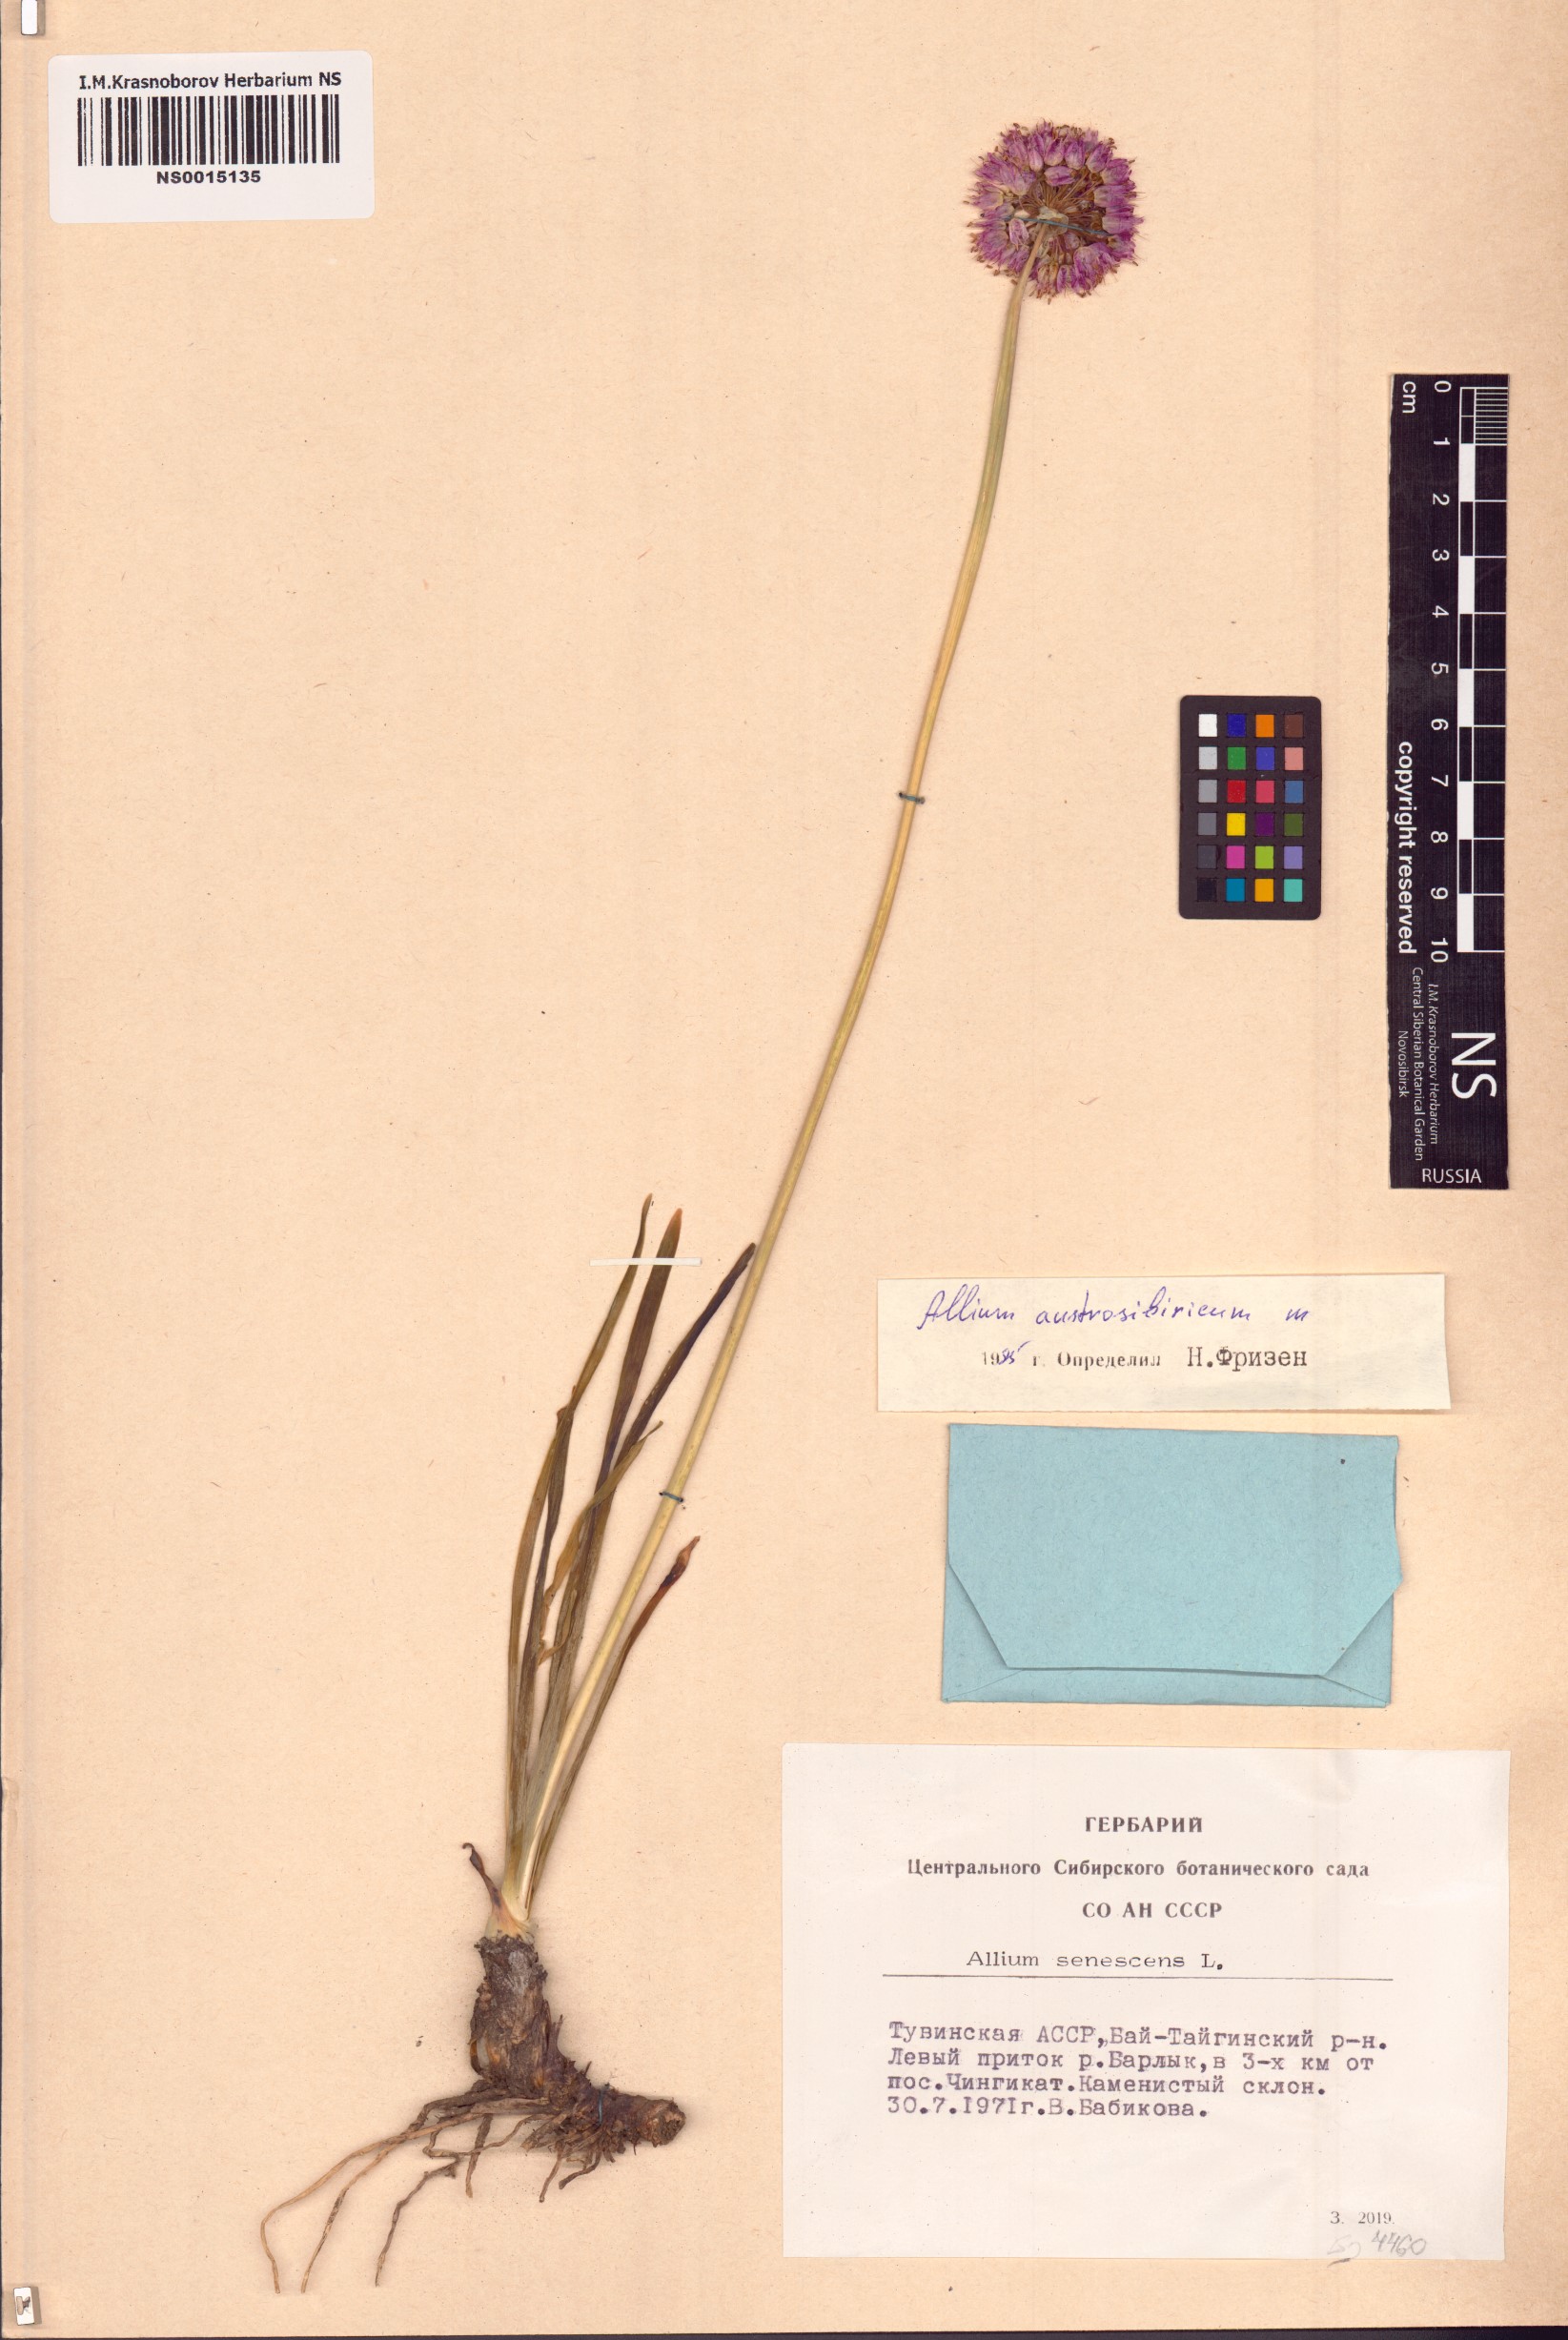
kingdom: Plantae
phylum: Tracheophyta
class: Liliopsida
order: Asparagales
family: Amaryllidaceae
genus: Allium
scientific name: Allium austrosibiricum
